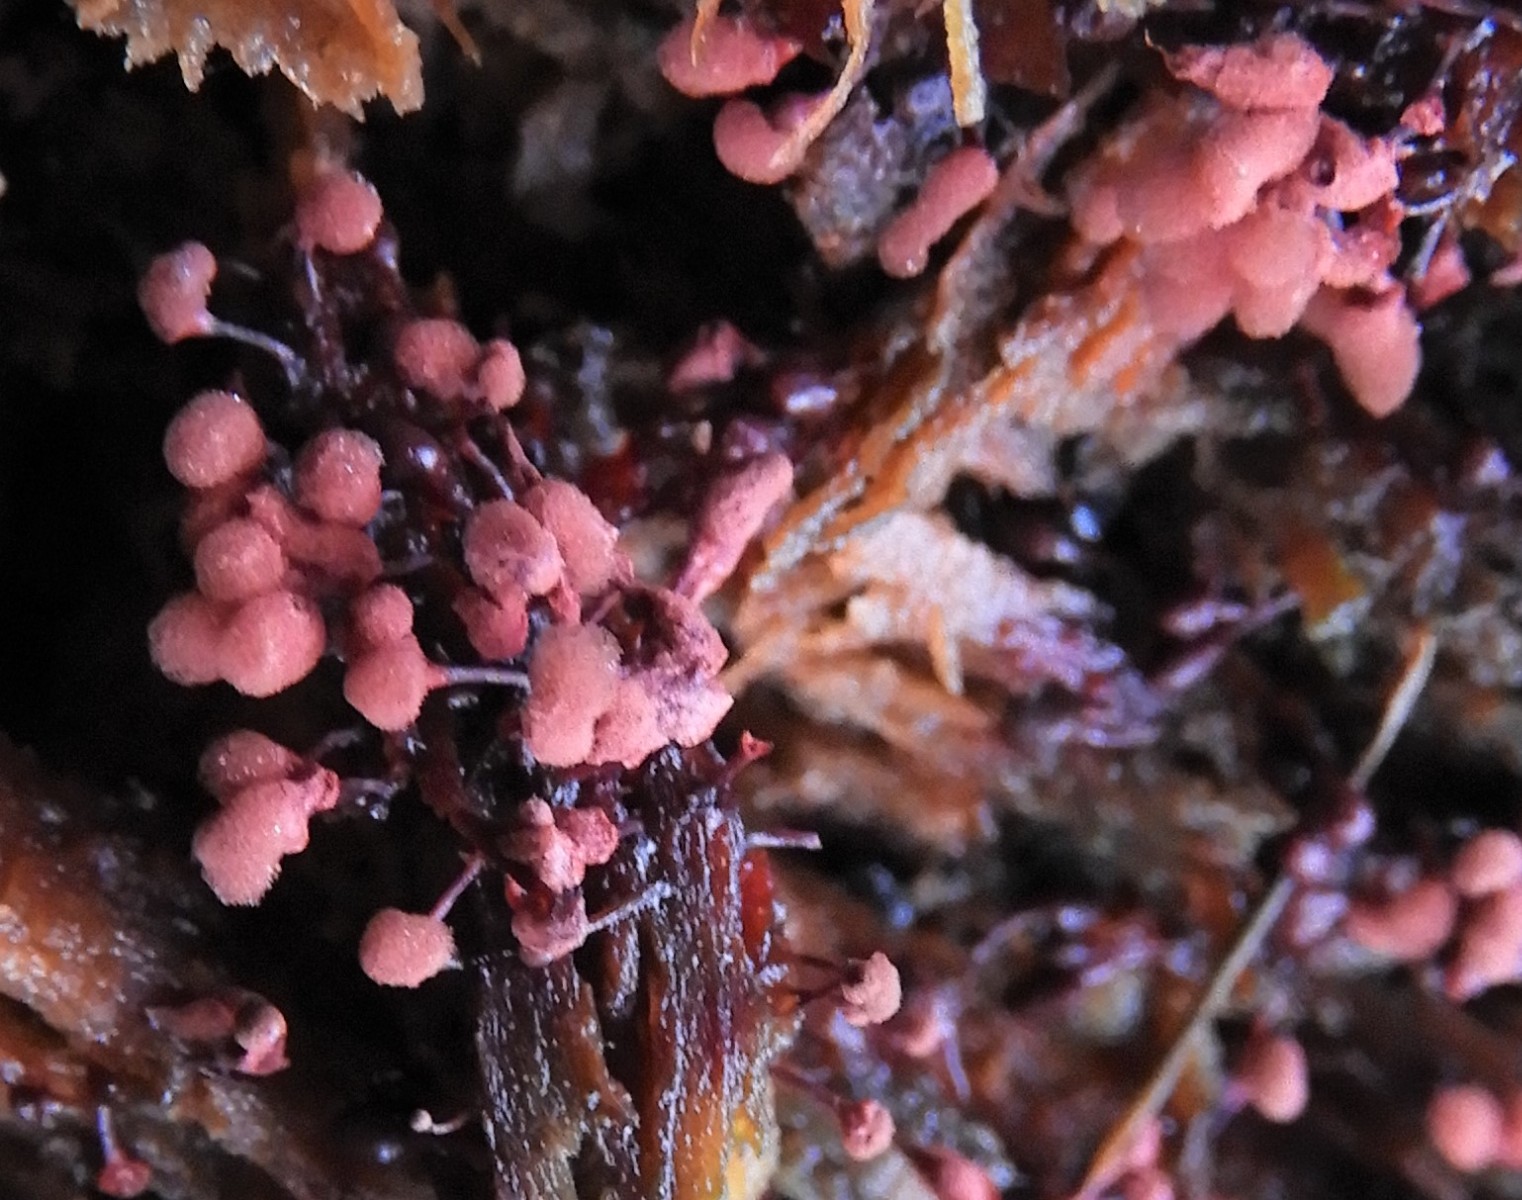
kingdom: Protozoa
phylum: Mycetozoa
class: Myxomycetes
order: Trichiales
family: Arcyriaceae
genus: Arcyria
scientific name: Arcyria denudata
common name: karminrød skålsvøb
